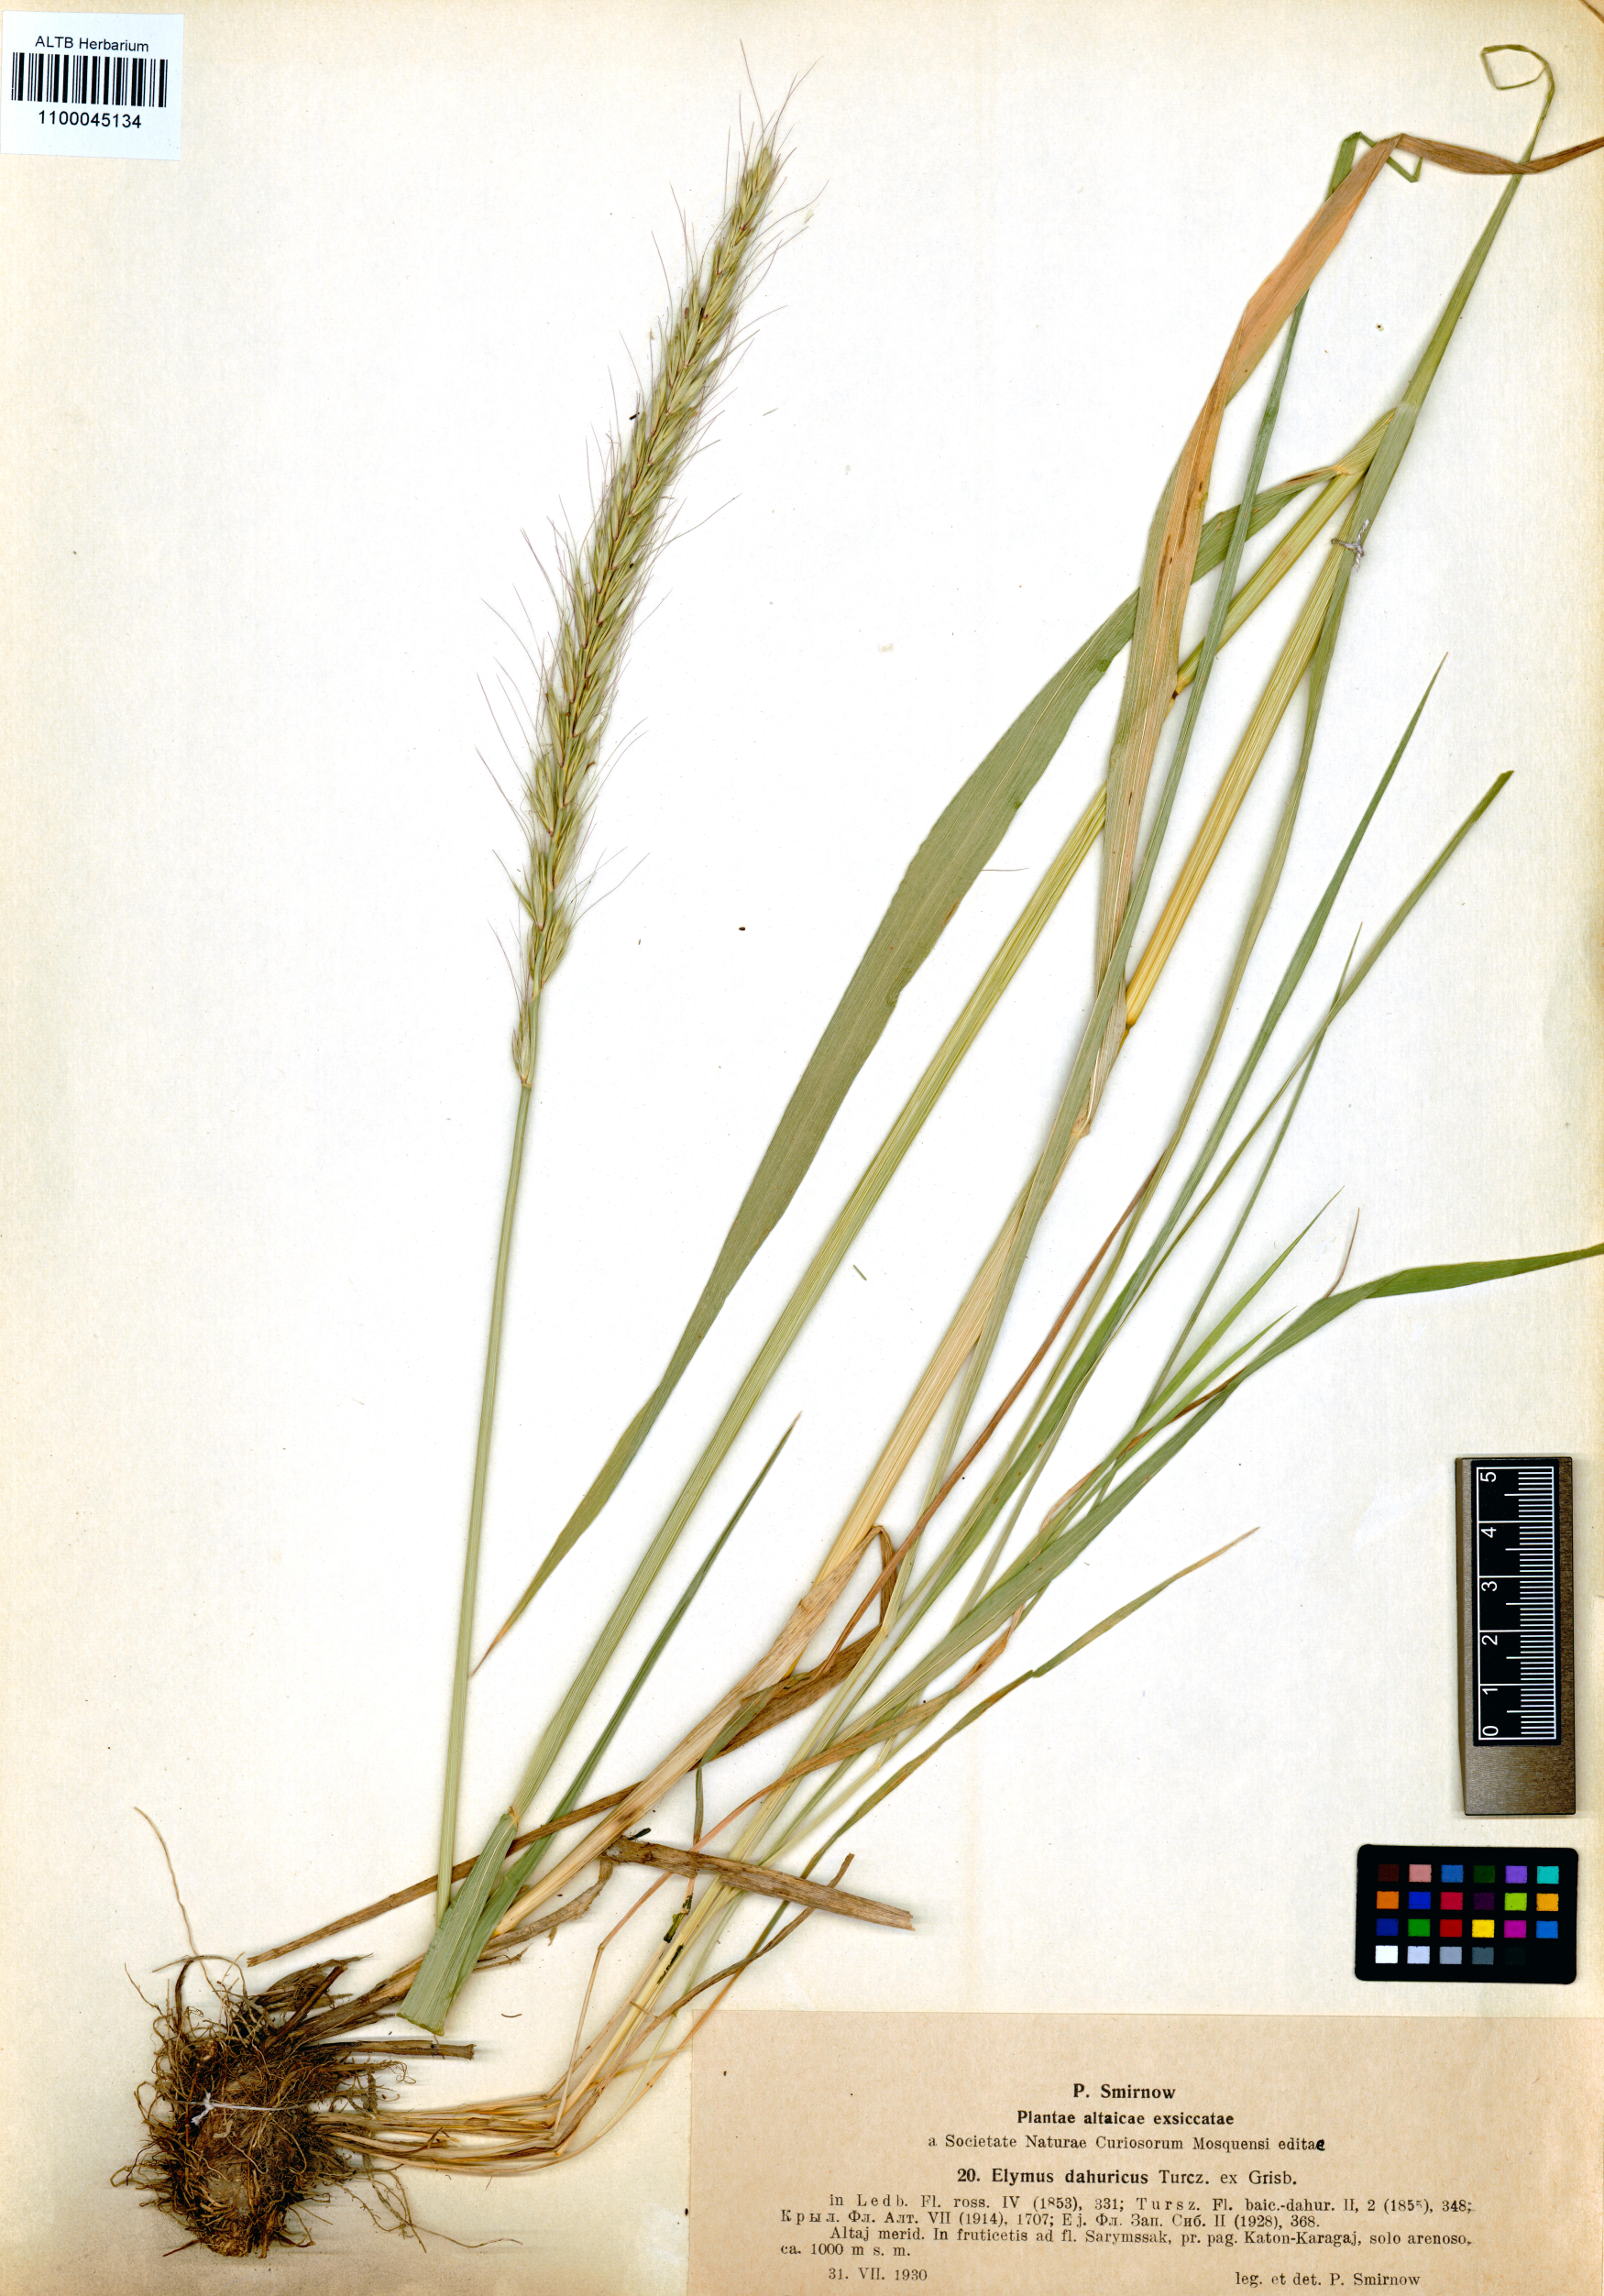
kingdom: Plantae
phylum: Tracheophyta
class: Liliopsida
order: Poales
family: Poaceae
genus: Elymus
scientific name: Elymus dahuricus
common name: Dahurian wild rye
